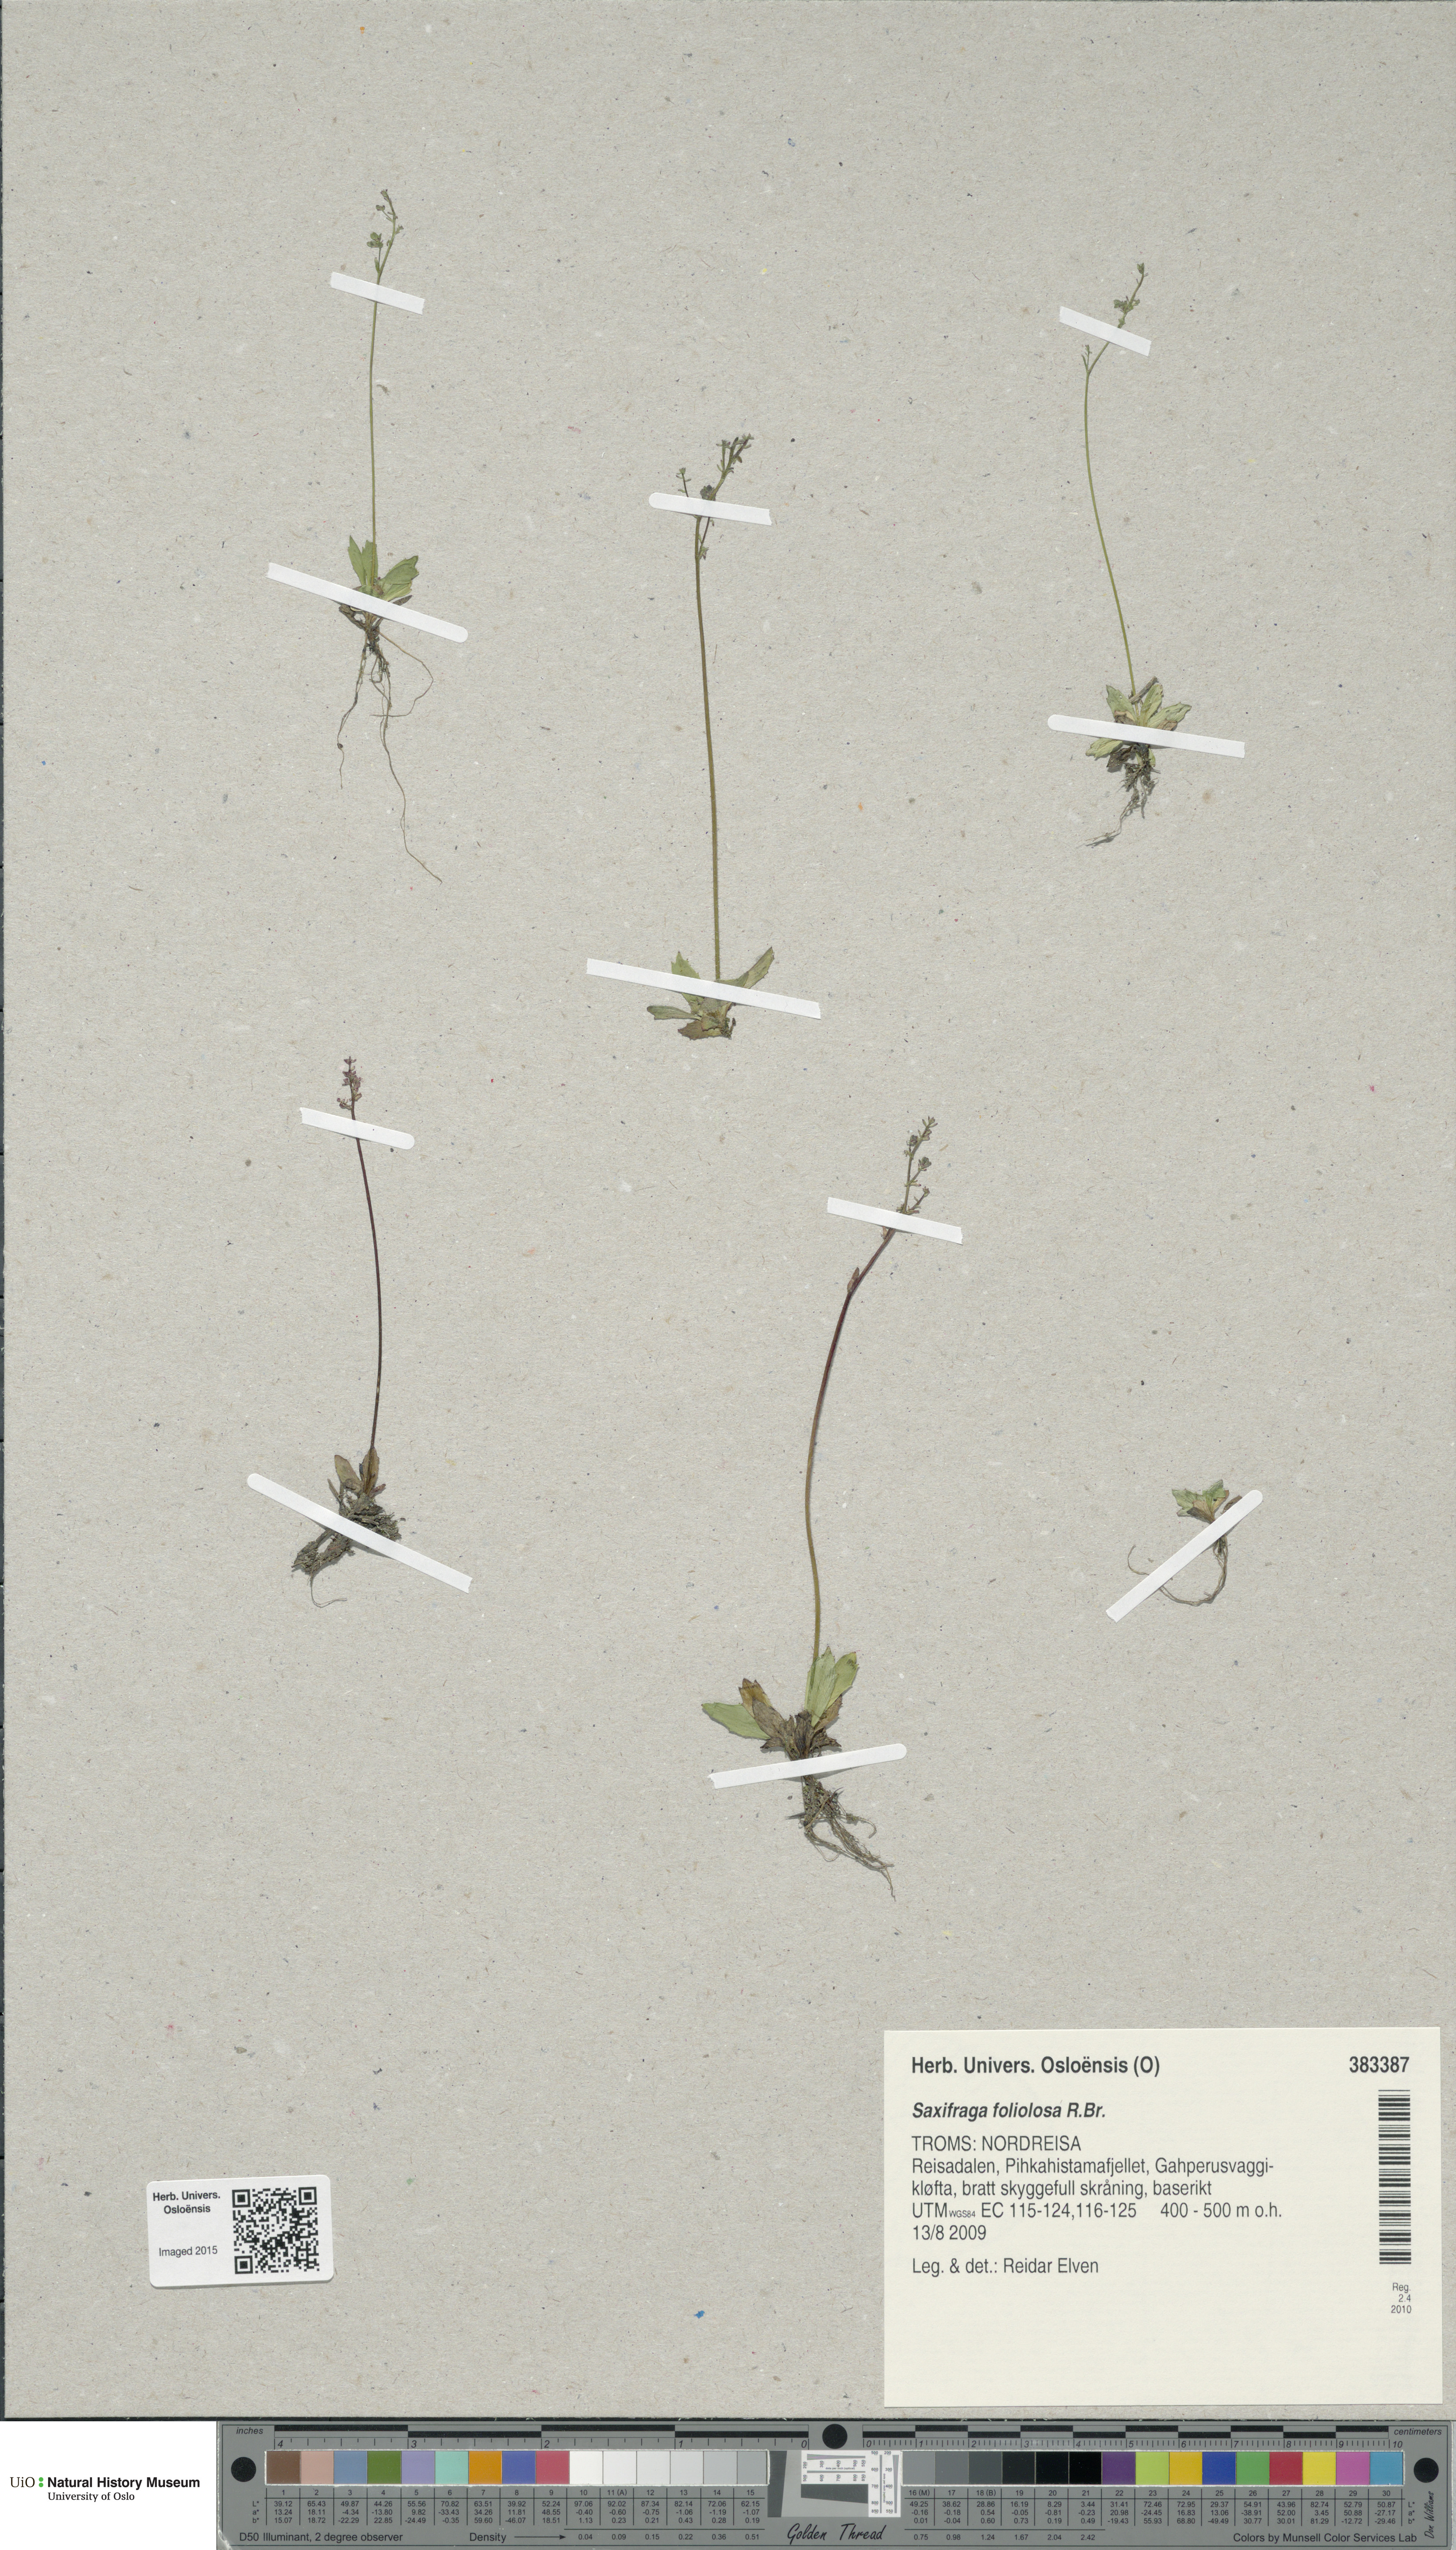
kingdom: Plantae
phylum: Tracheophyta
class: Magnoliopsida
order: Saxifragales
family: Saxifragaceae
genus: Micranthes
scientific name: Micranthes foliolosa
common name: Leafystem saxifrage
